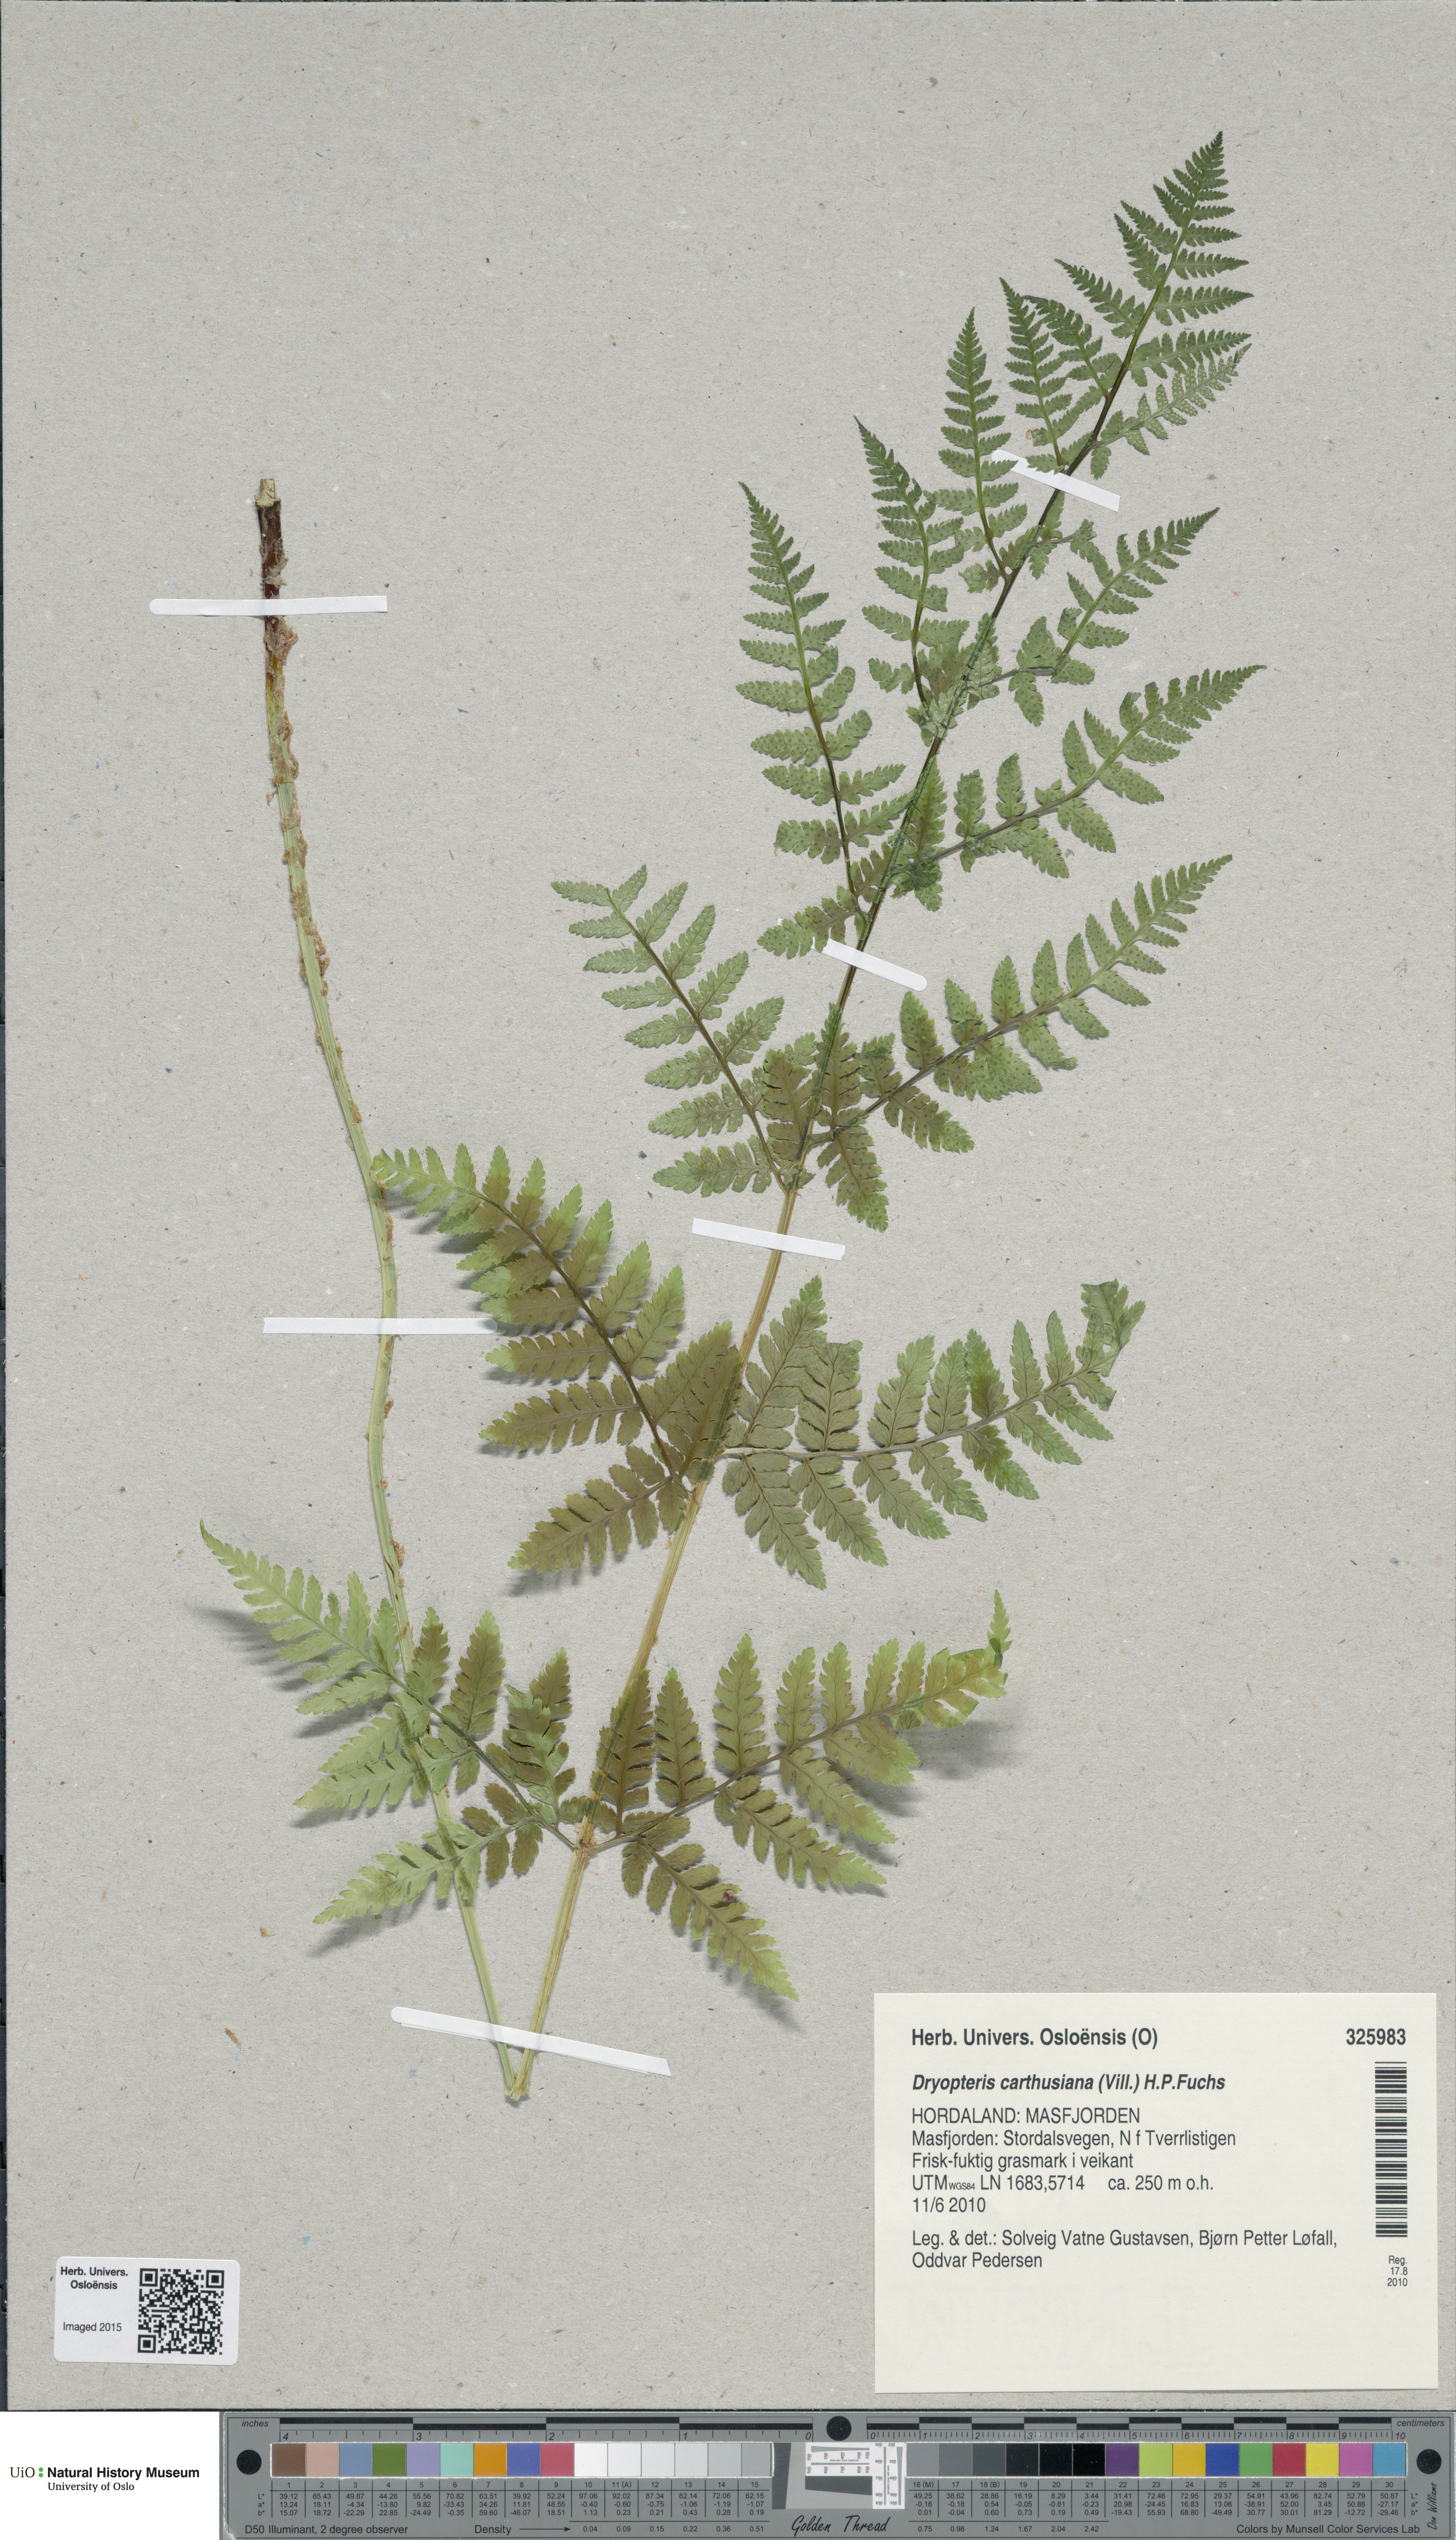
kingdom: Plantae
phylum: Tracheophyta
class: Polypodiopsida
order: Polypodiales
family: Dryopteridaceae
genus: Dryopteris
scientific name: Dryopteris carthusiana
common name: Narrow buckler-fern
